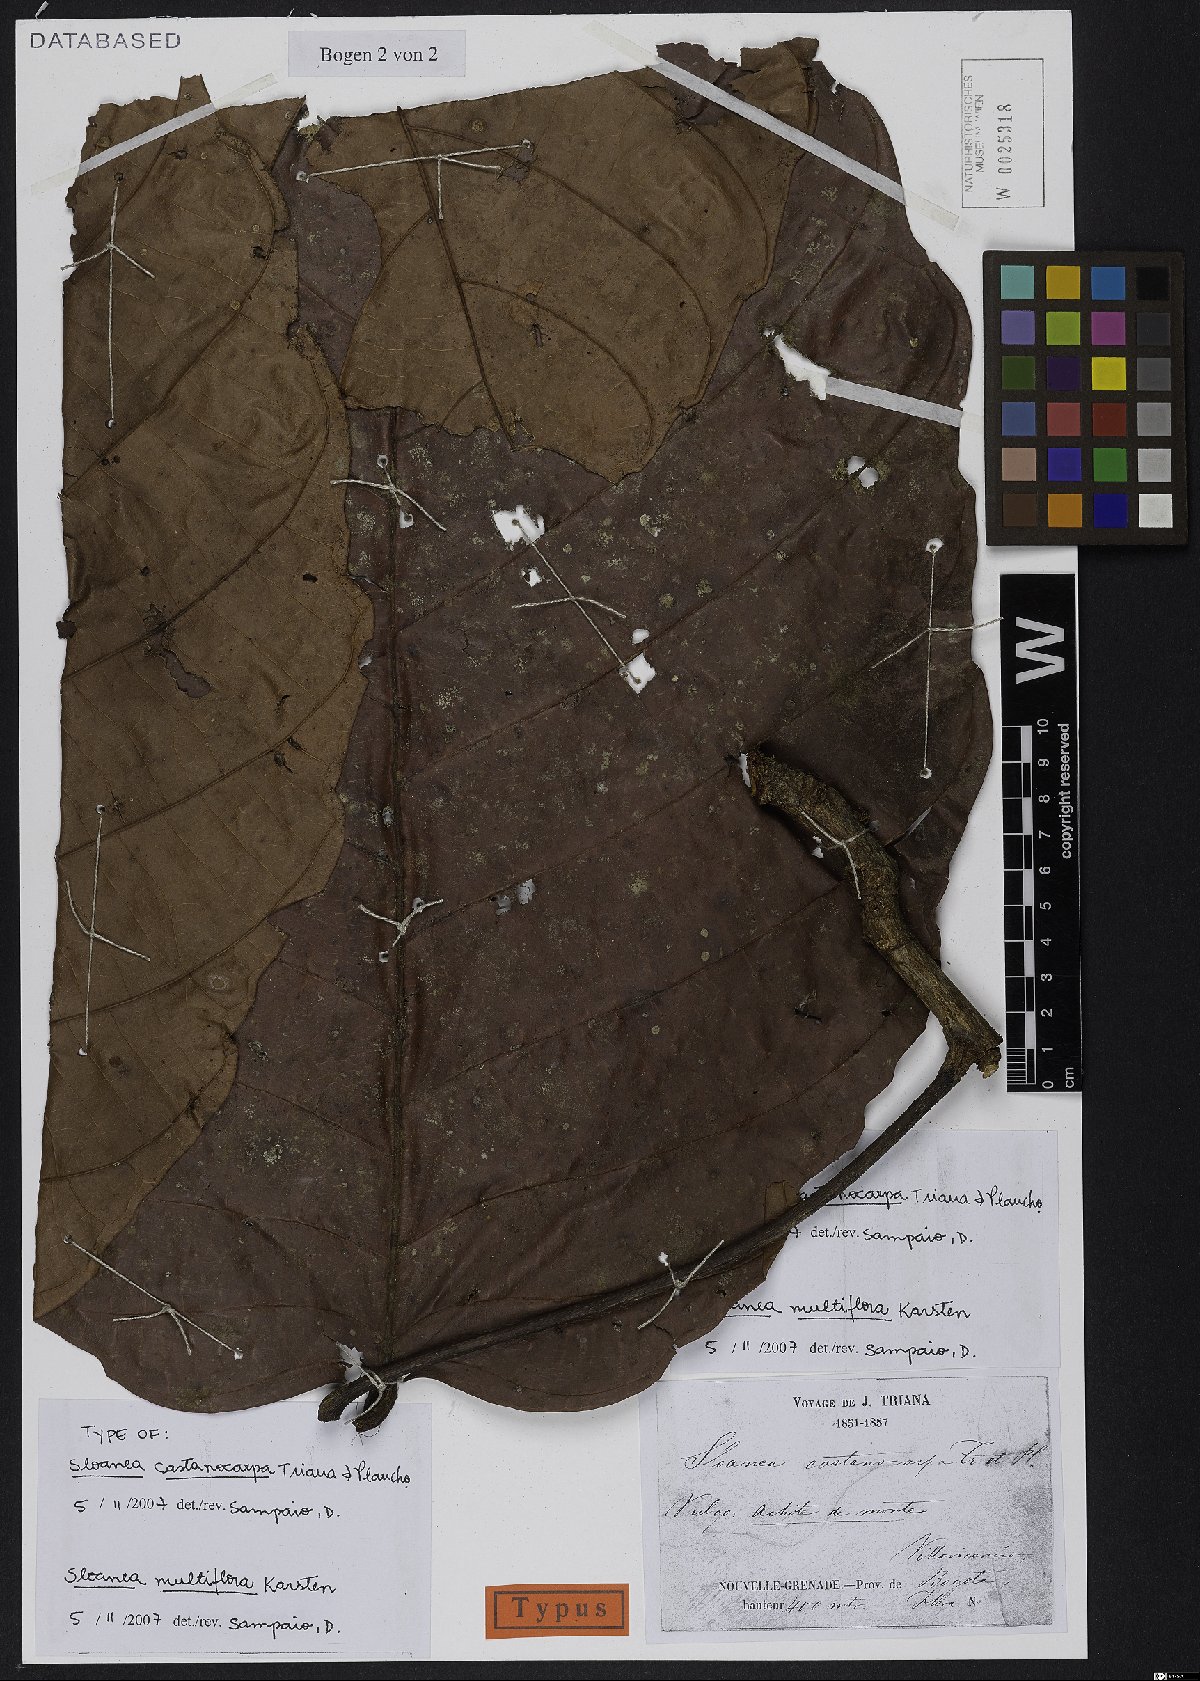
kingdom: Plantae
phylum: Tracheophyta
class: Magnoliopsida
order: Oxalidales
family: Elaeocarpaceae
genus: Sloanea
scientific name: Sloanea castanocarpa
